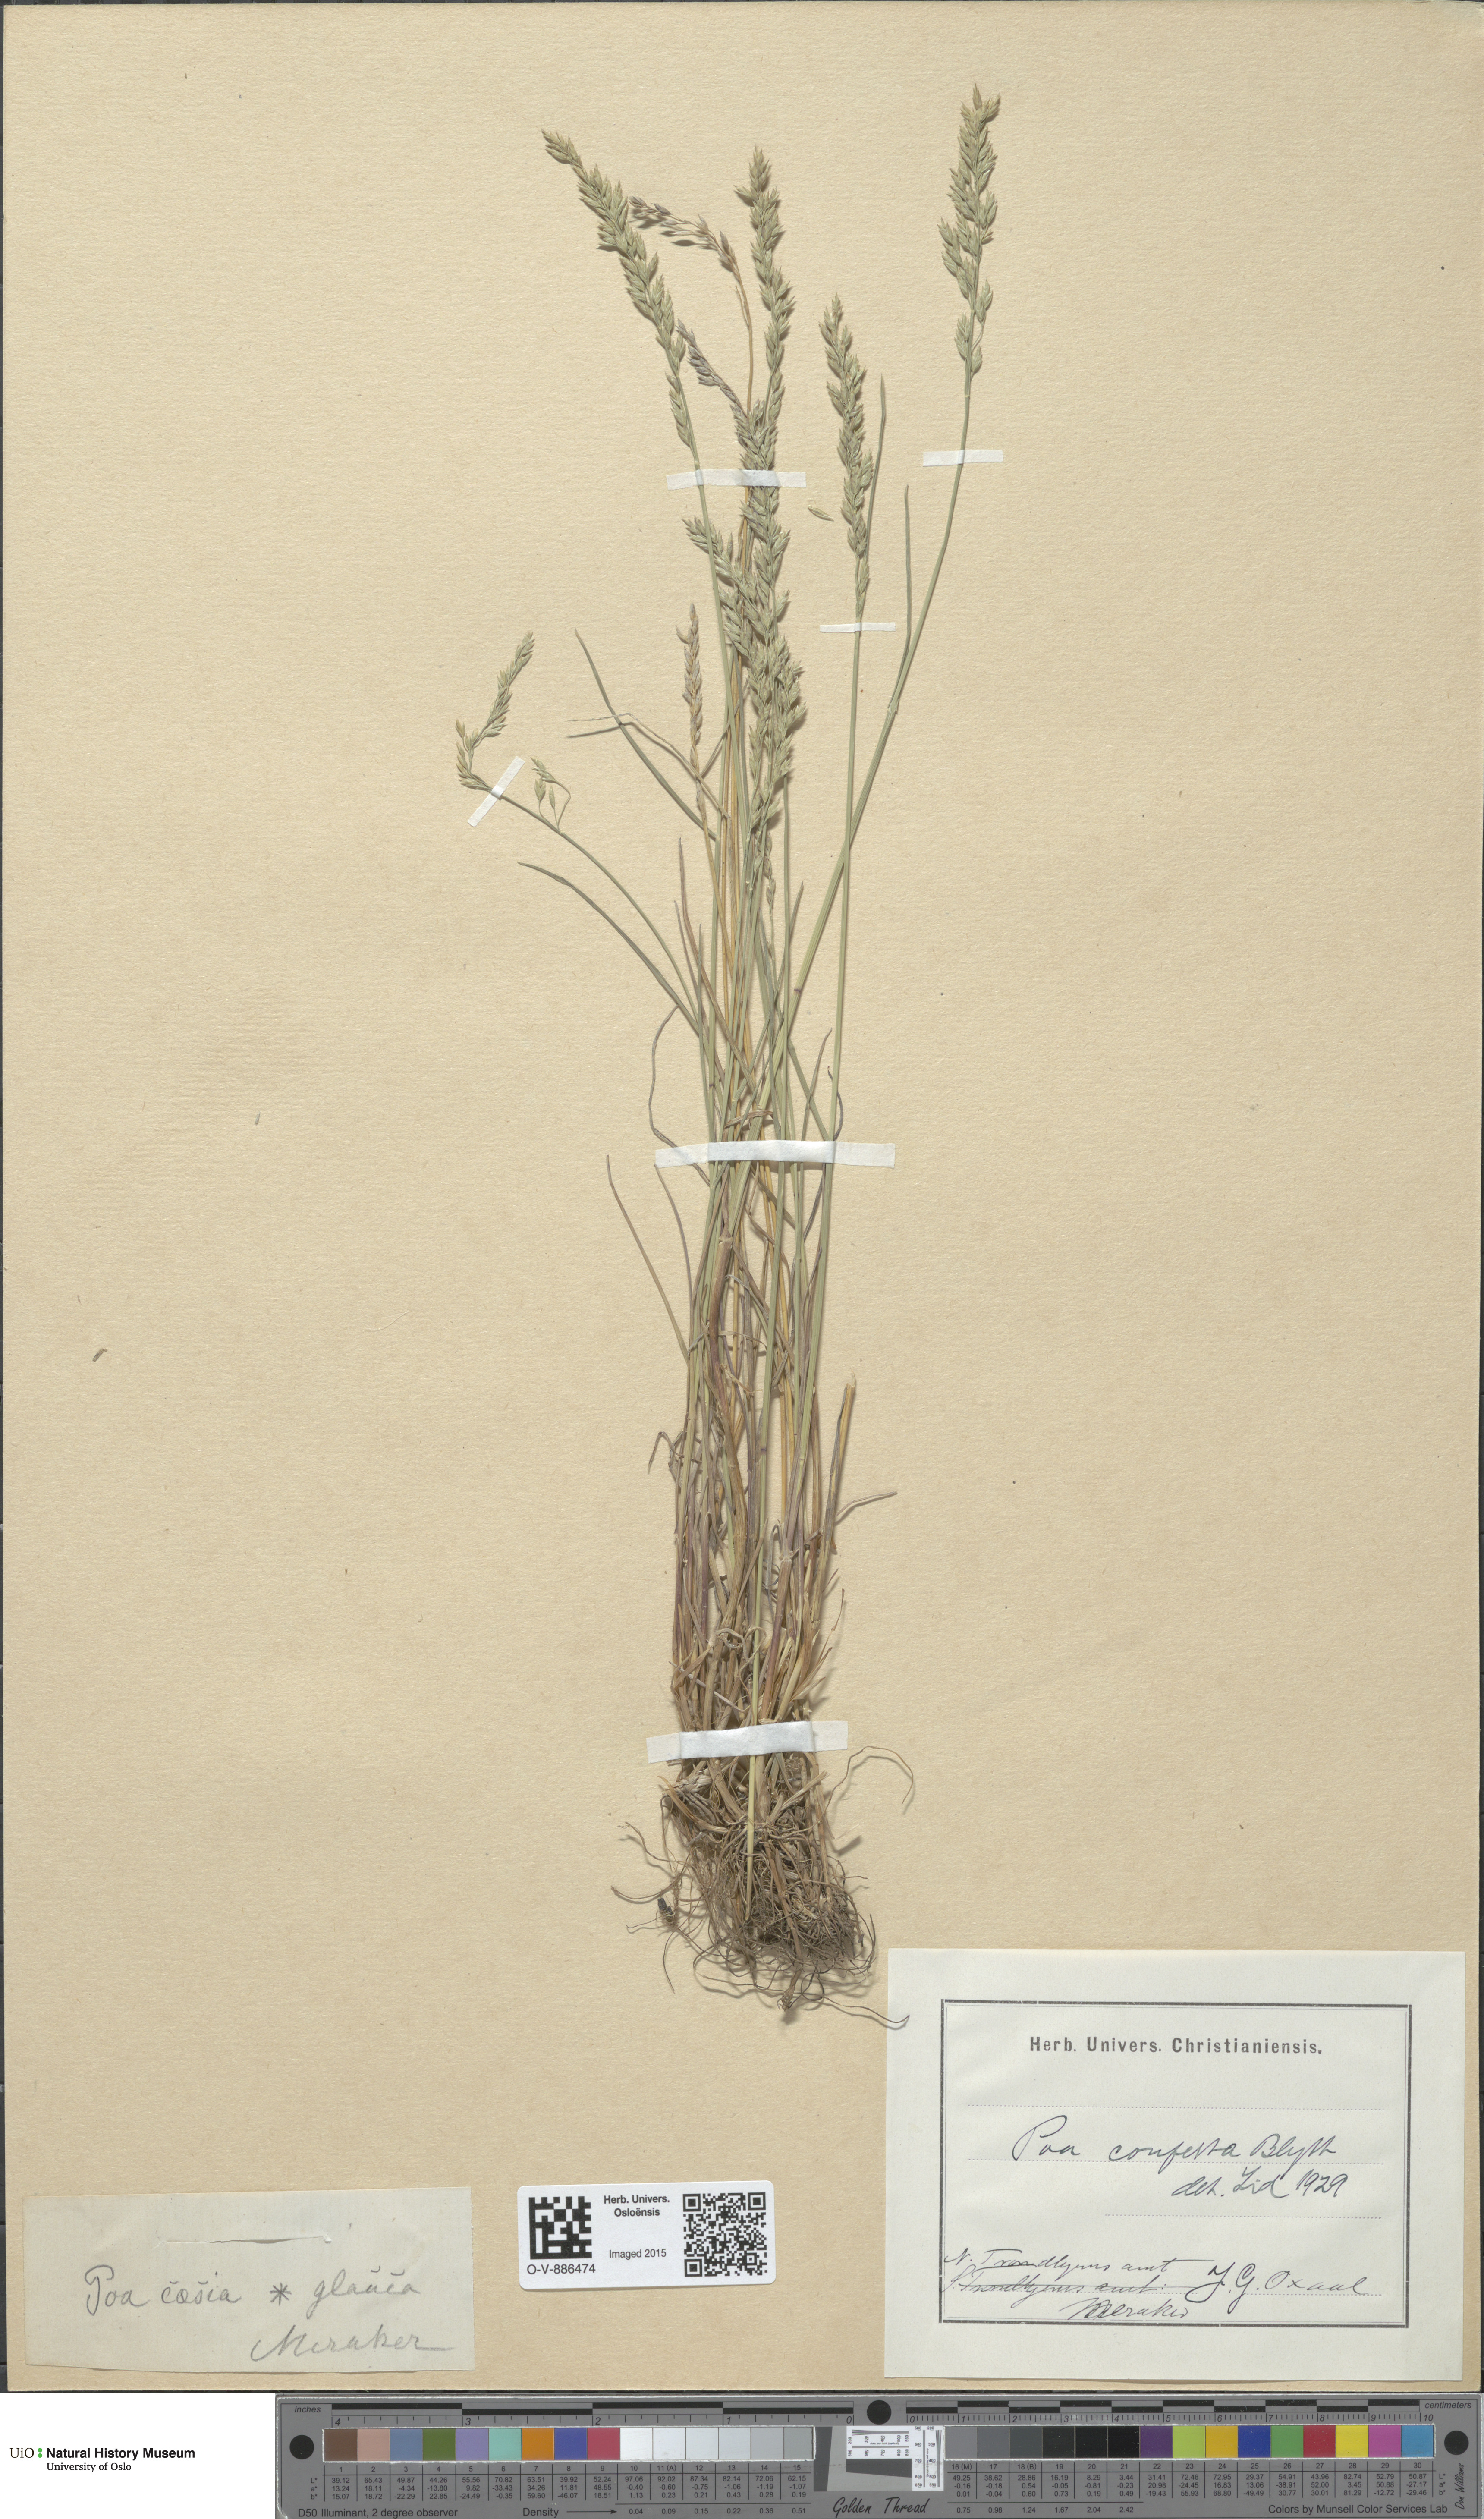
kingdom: Plantae
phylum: Tracheophyta
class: Liliopsida
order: Poales
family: Poaceae
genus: Poa
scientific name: Poa glauca
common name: Glaucous bluegrass
